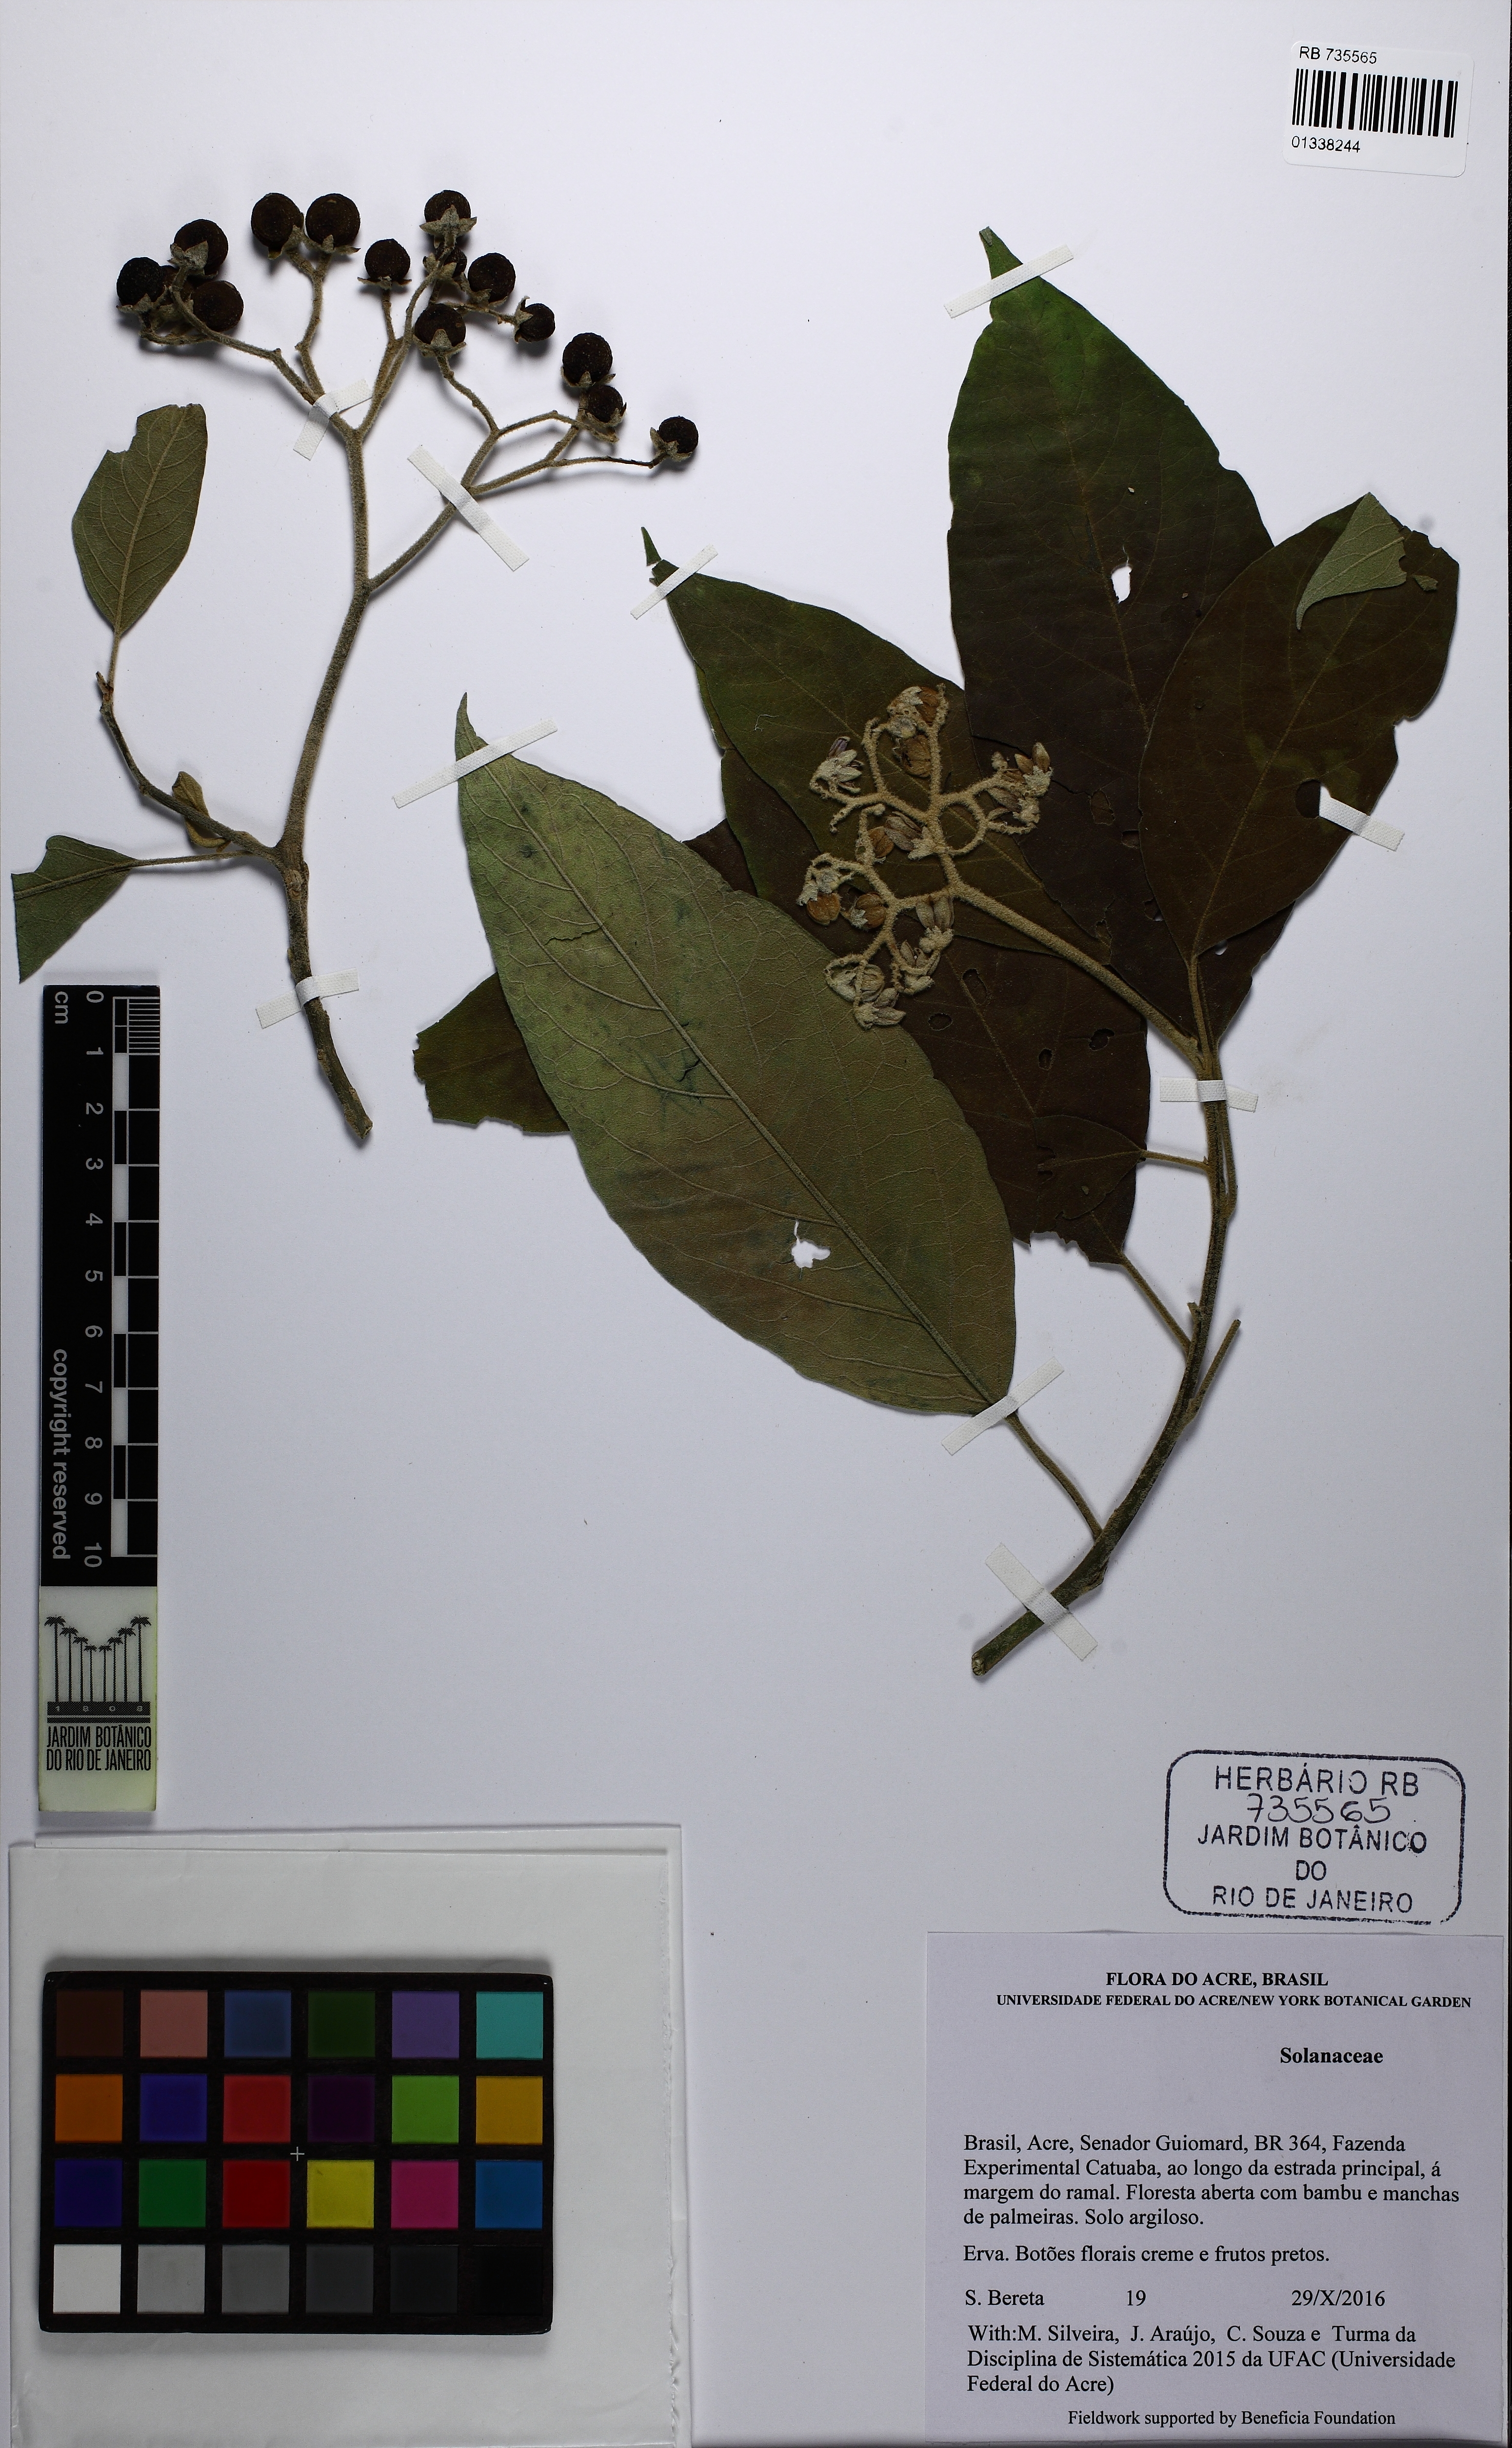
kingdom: Plantae
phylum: Tracheophyta
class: Magnoliopsida
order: Solanales
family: Solanaceae
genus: Solanum
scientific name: Solanum
